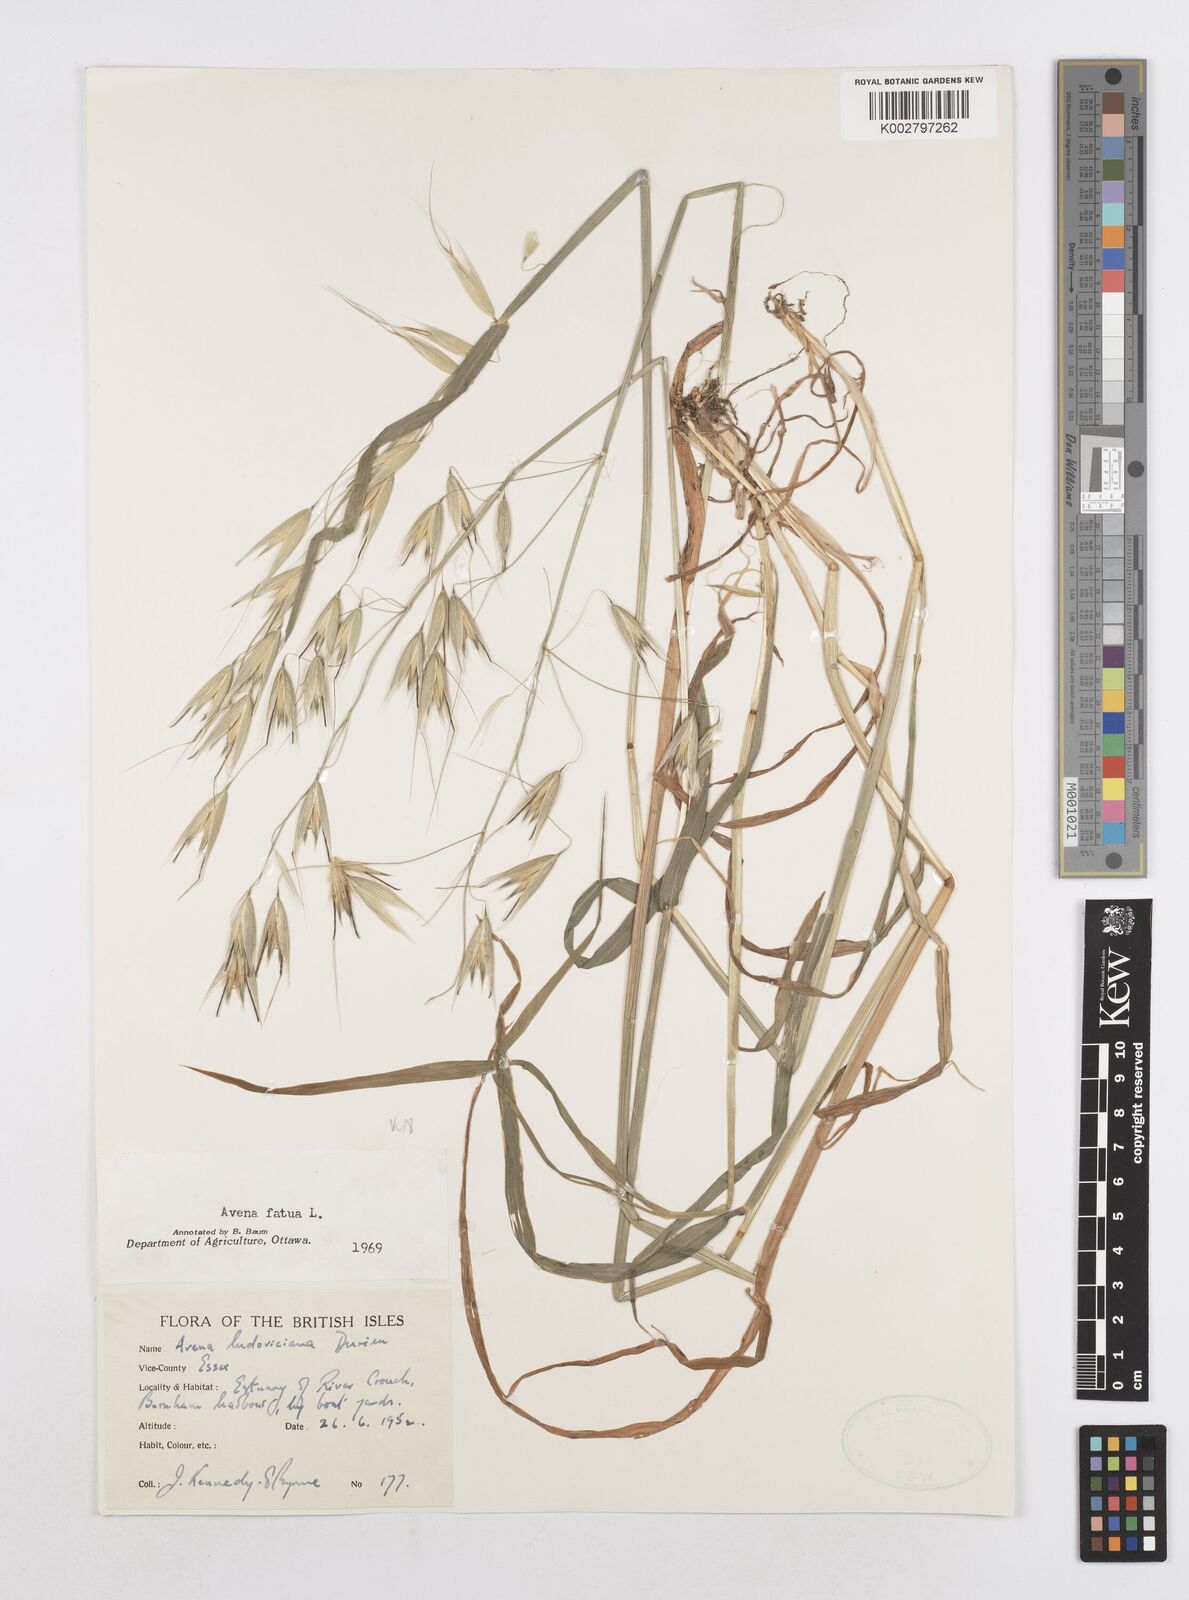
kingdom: Plantae
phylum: Tracheophyta
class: Liliopsida
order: Poales
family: Poaceae
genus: Avena
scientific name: Avena fatua
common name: Wild oat
